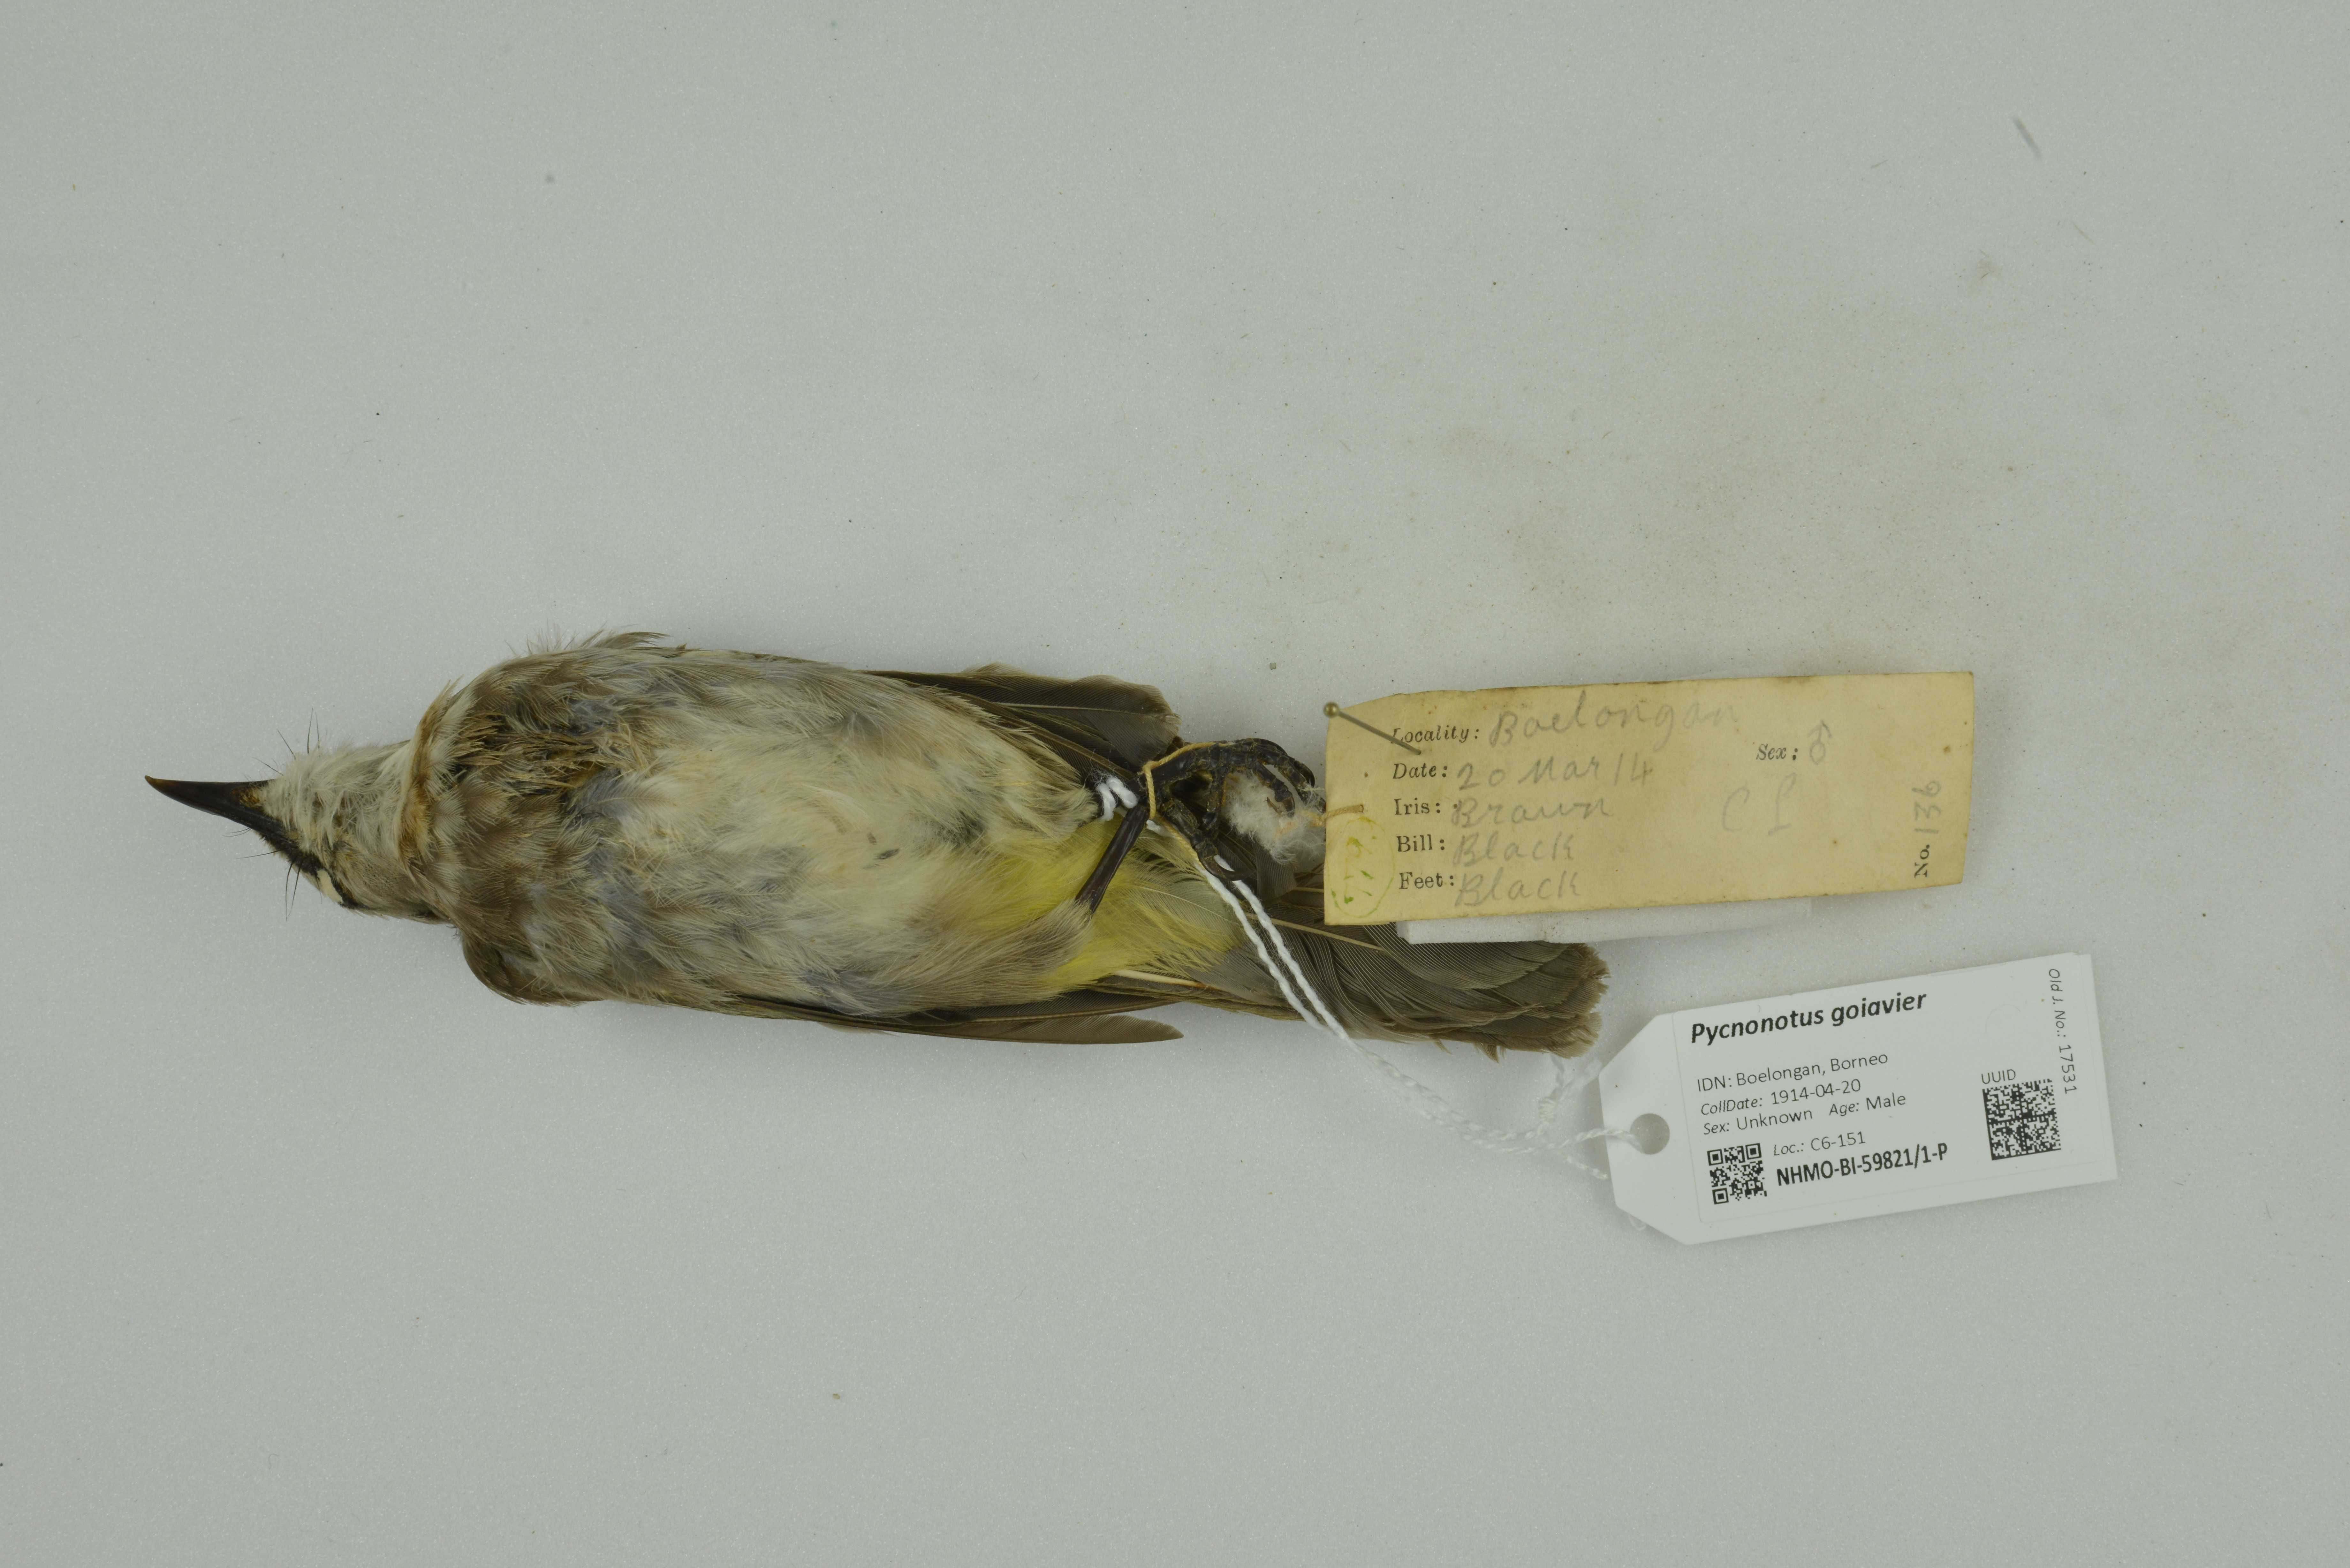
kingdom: Animalia
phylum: Chordata
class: Aves
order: Passeriformes
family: Pycnonotidae
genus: Pycnonotus
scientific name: Pycnonotus goiavier
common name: Yellow-vented bulbul
